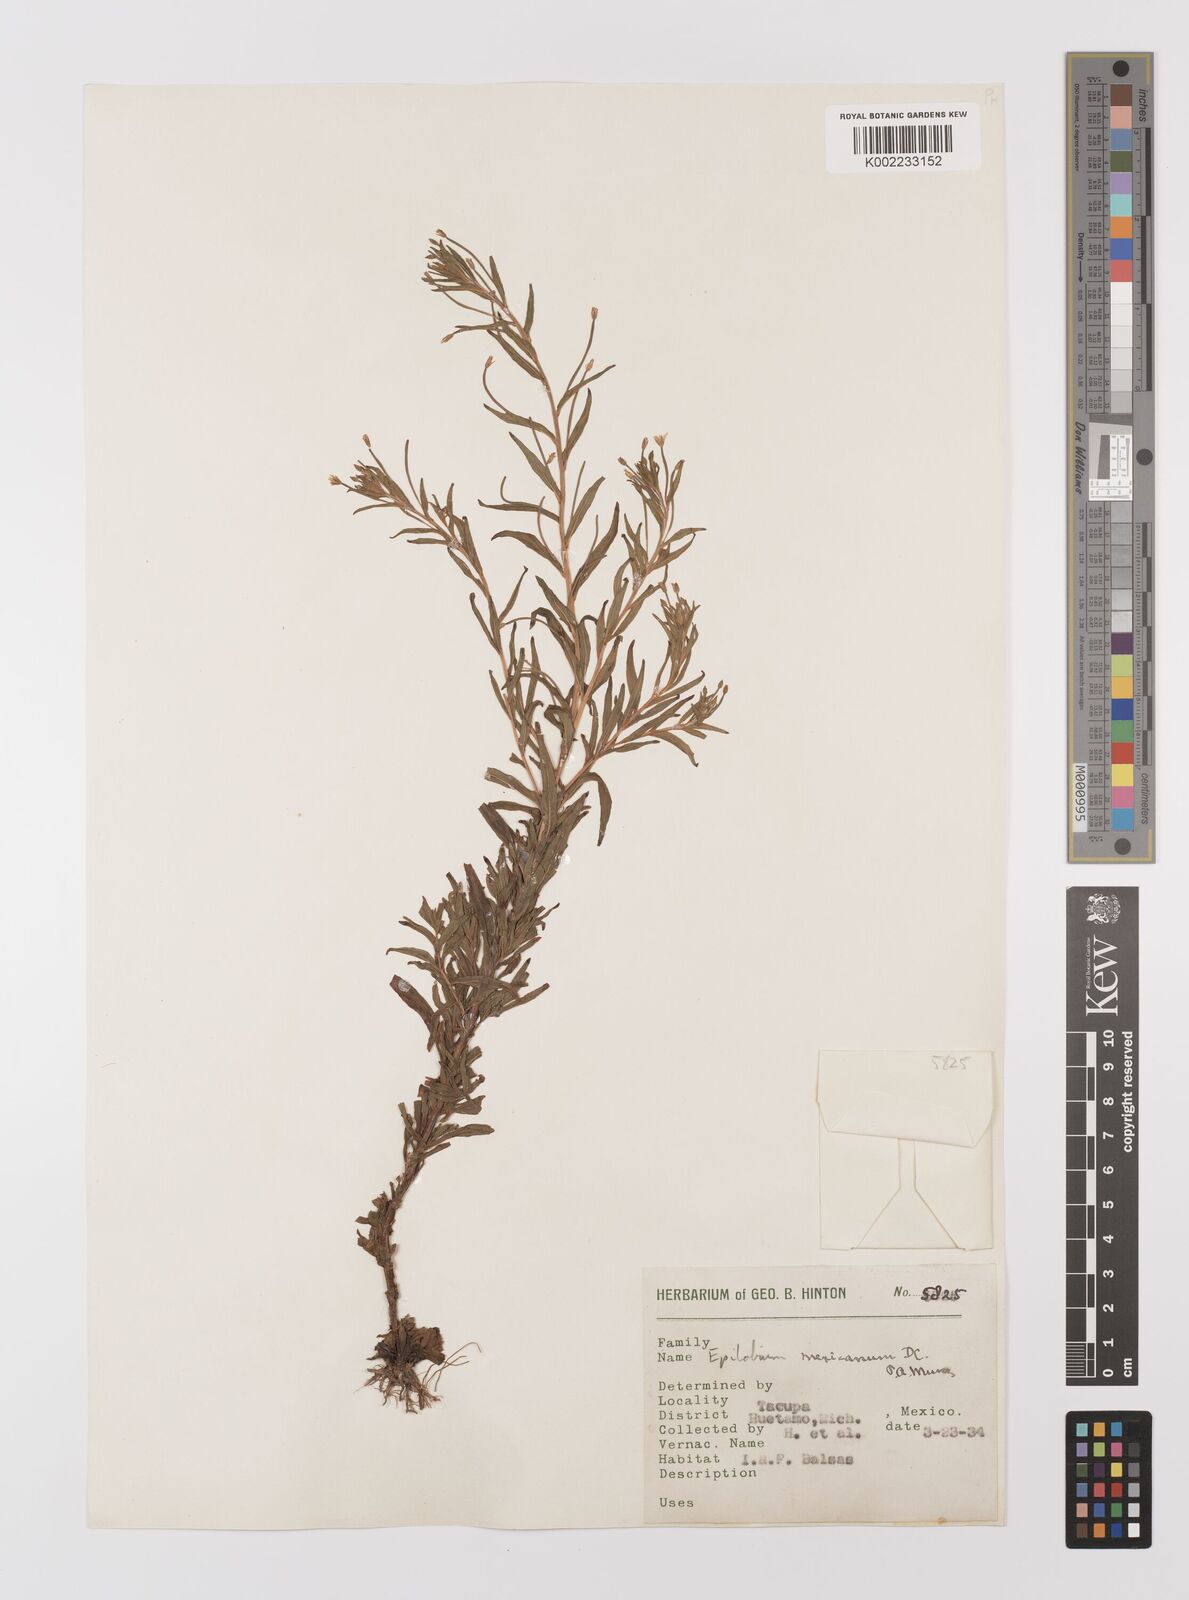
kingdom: Plantae
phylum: Tracheophyta
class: Magnoliopsida
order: Myrtales
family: Onagraceae
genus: Epilobium
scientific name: Epilobium
